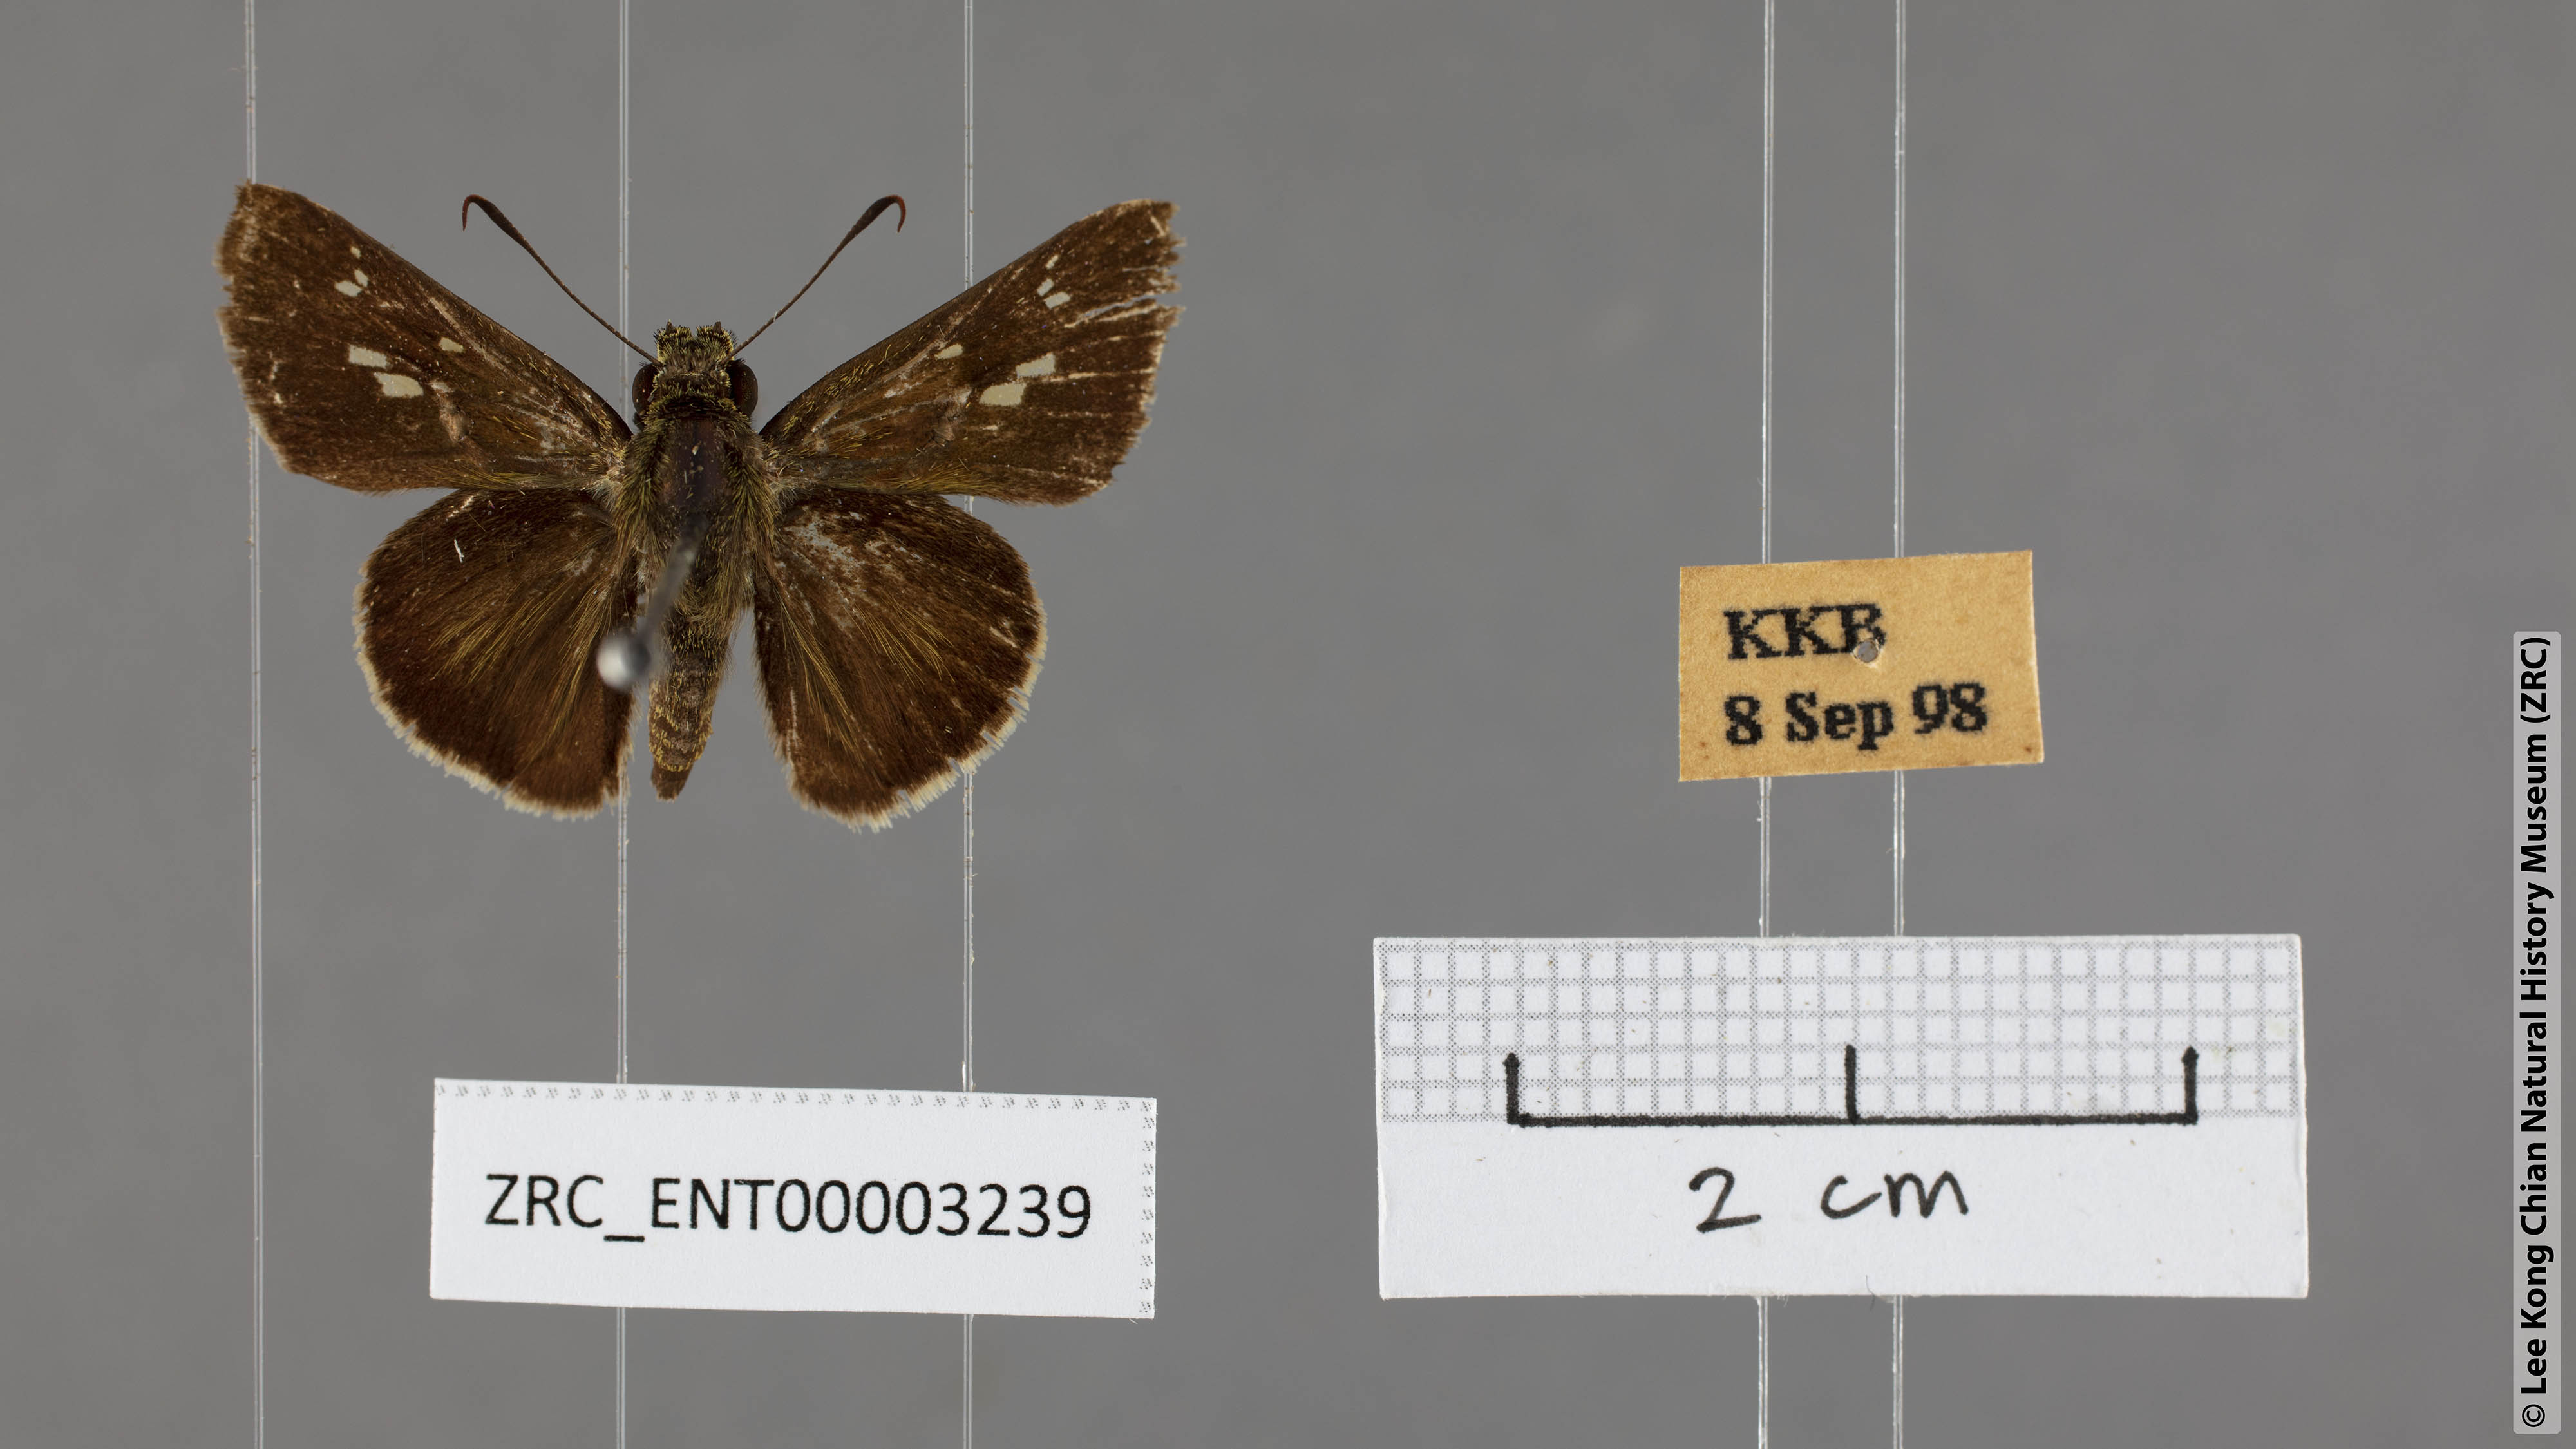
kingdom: Animalia
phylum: Arthropoda
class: Insecta
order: Lepidoptera
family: Hesperiidae
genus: Halpe
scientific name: Halpe pelethronix
